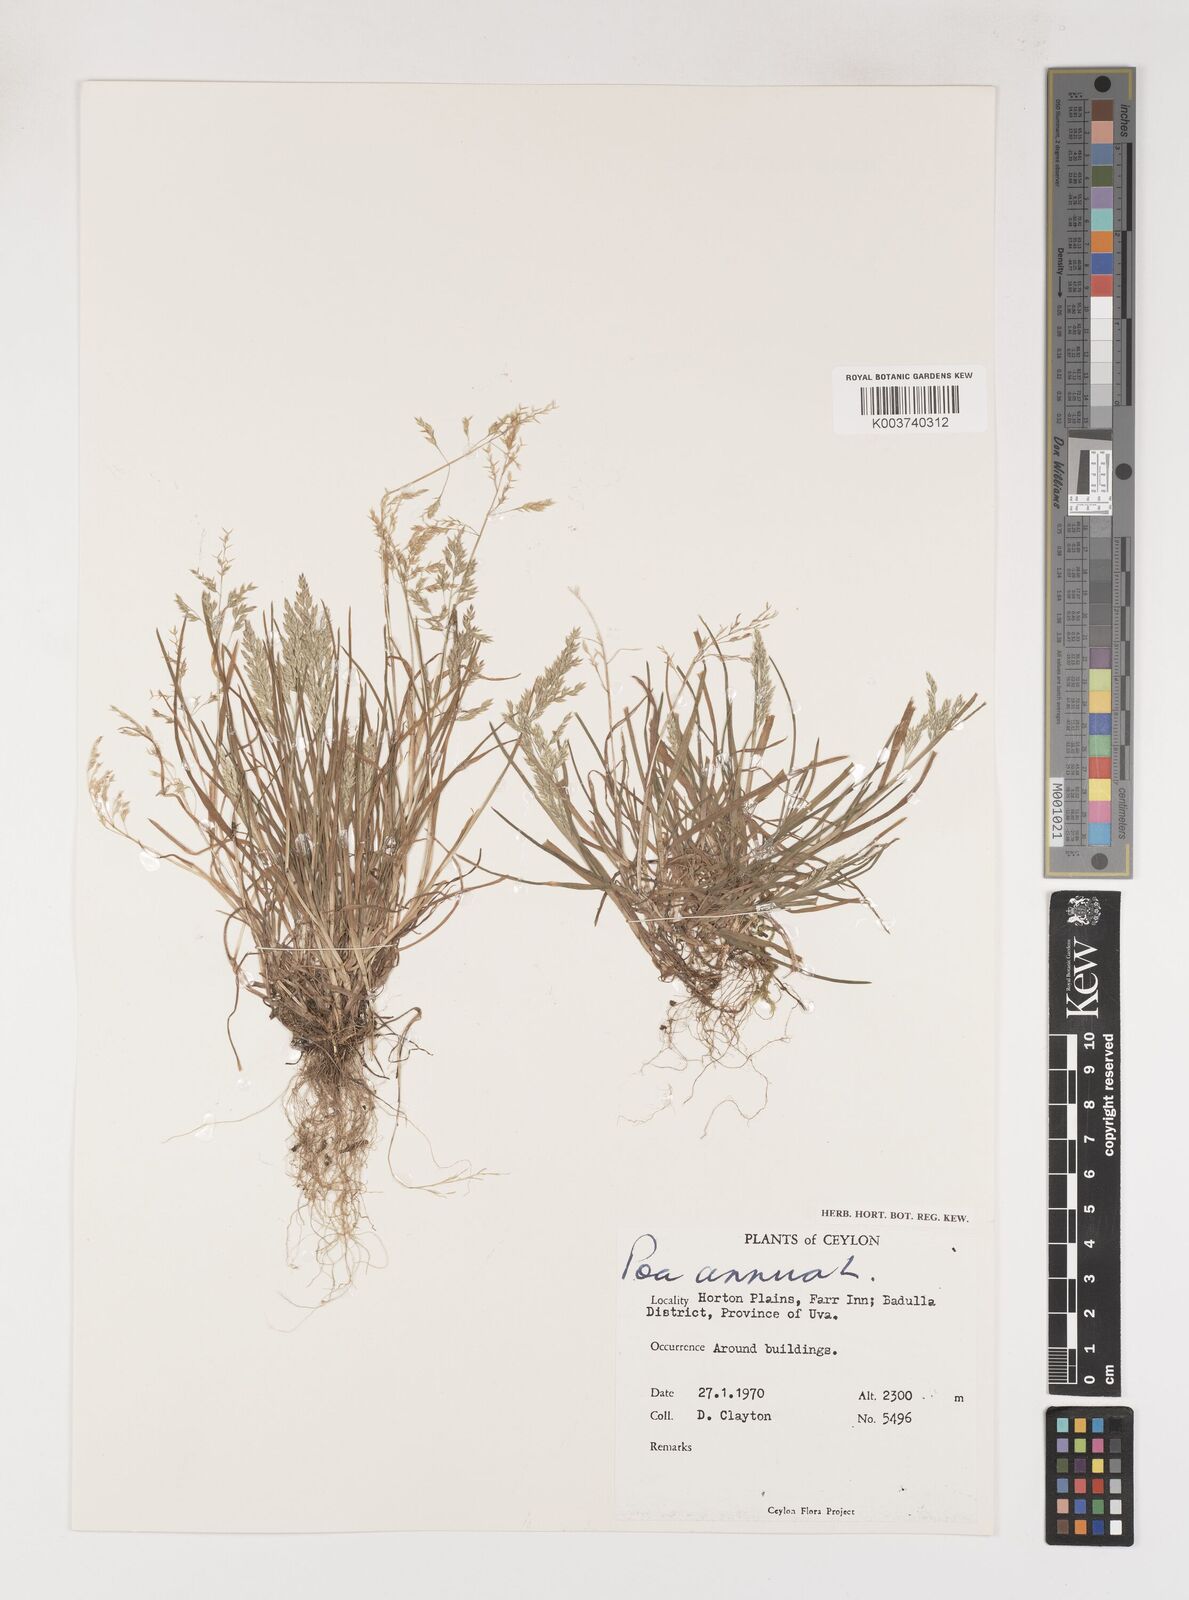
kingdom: Plantae
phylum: Tracheophyta
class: Liliopsida
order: Poales
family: Poaceae
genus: Poa
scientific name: Poa annua
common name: Annual bluegrass
